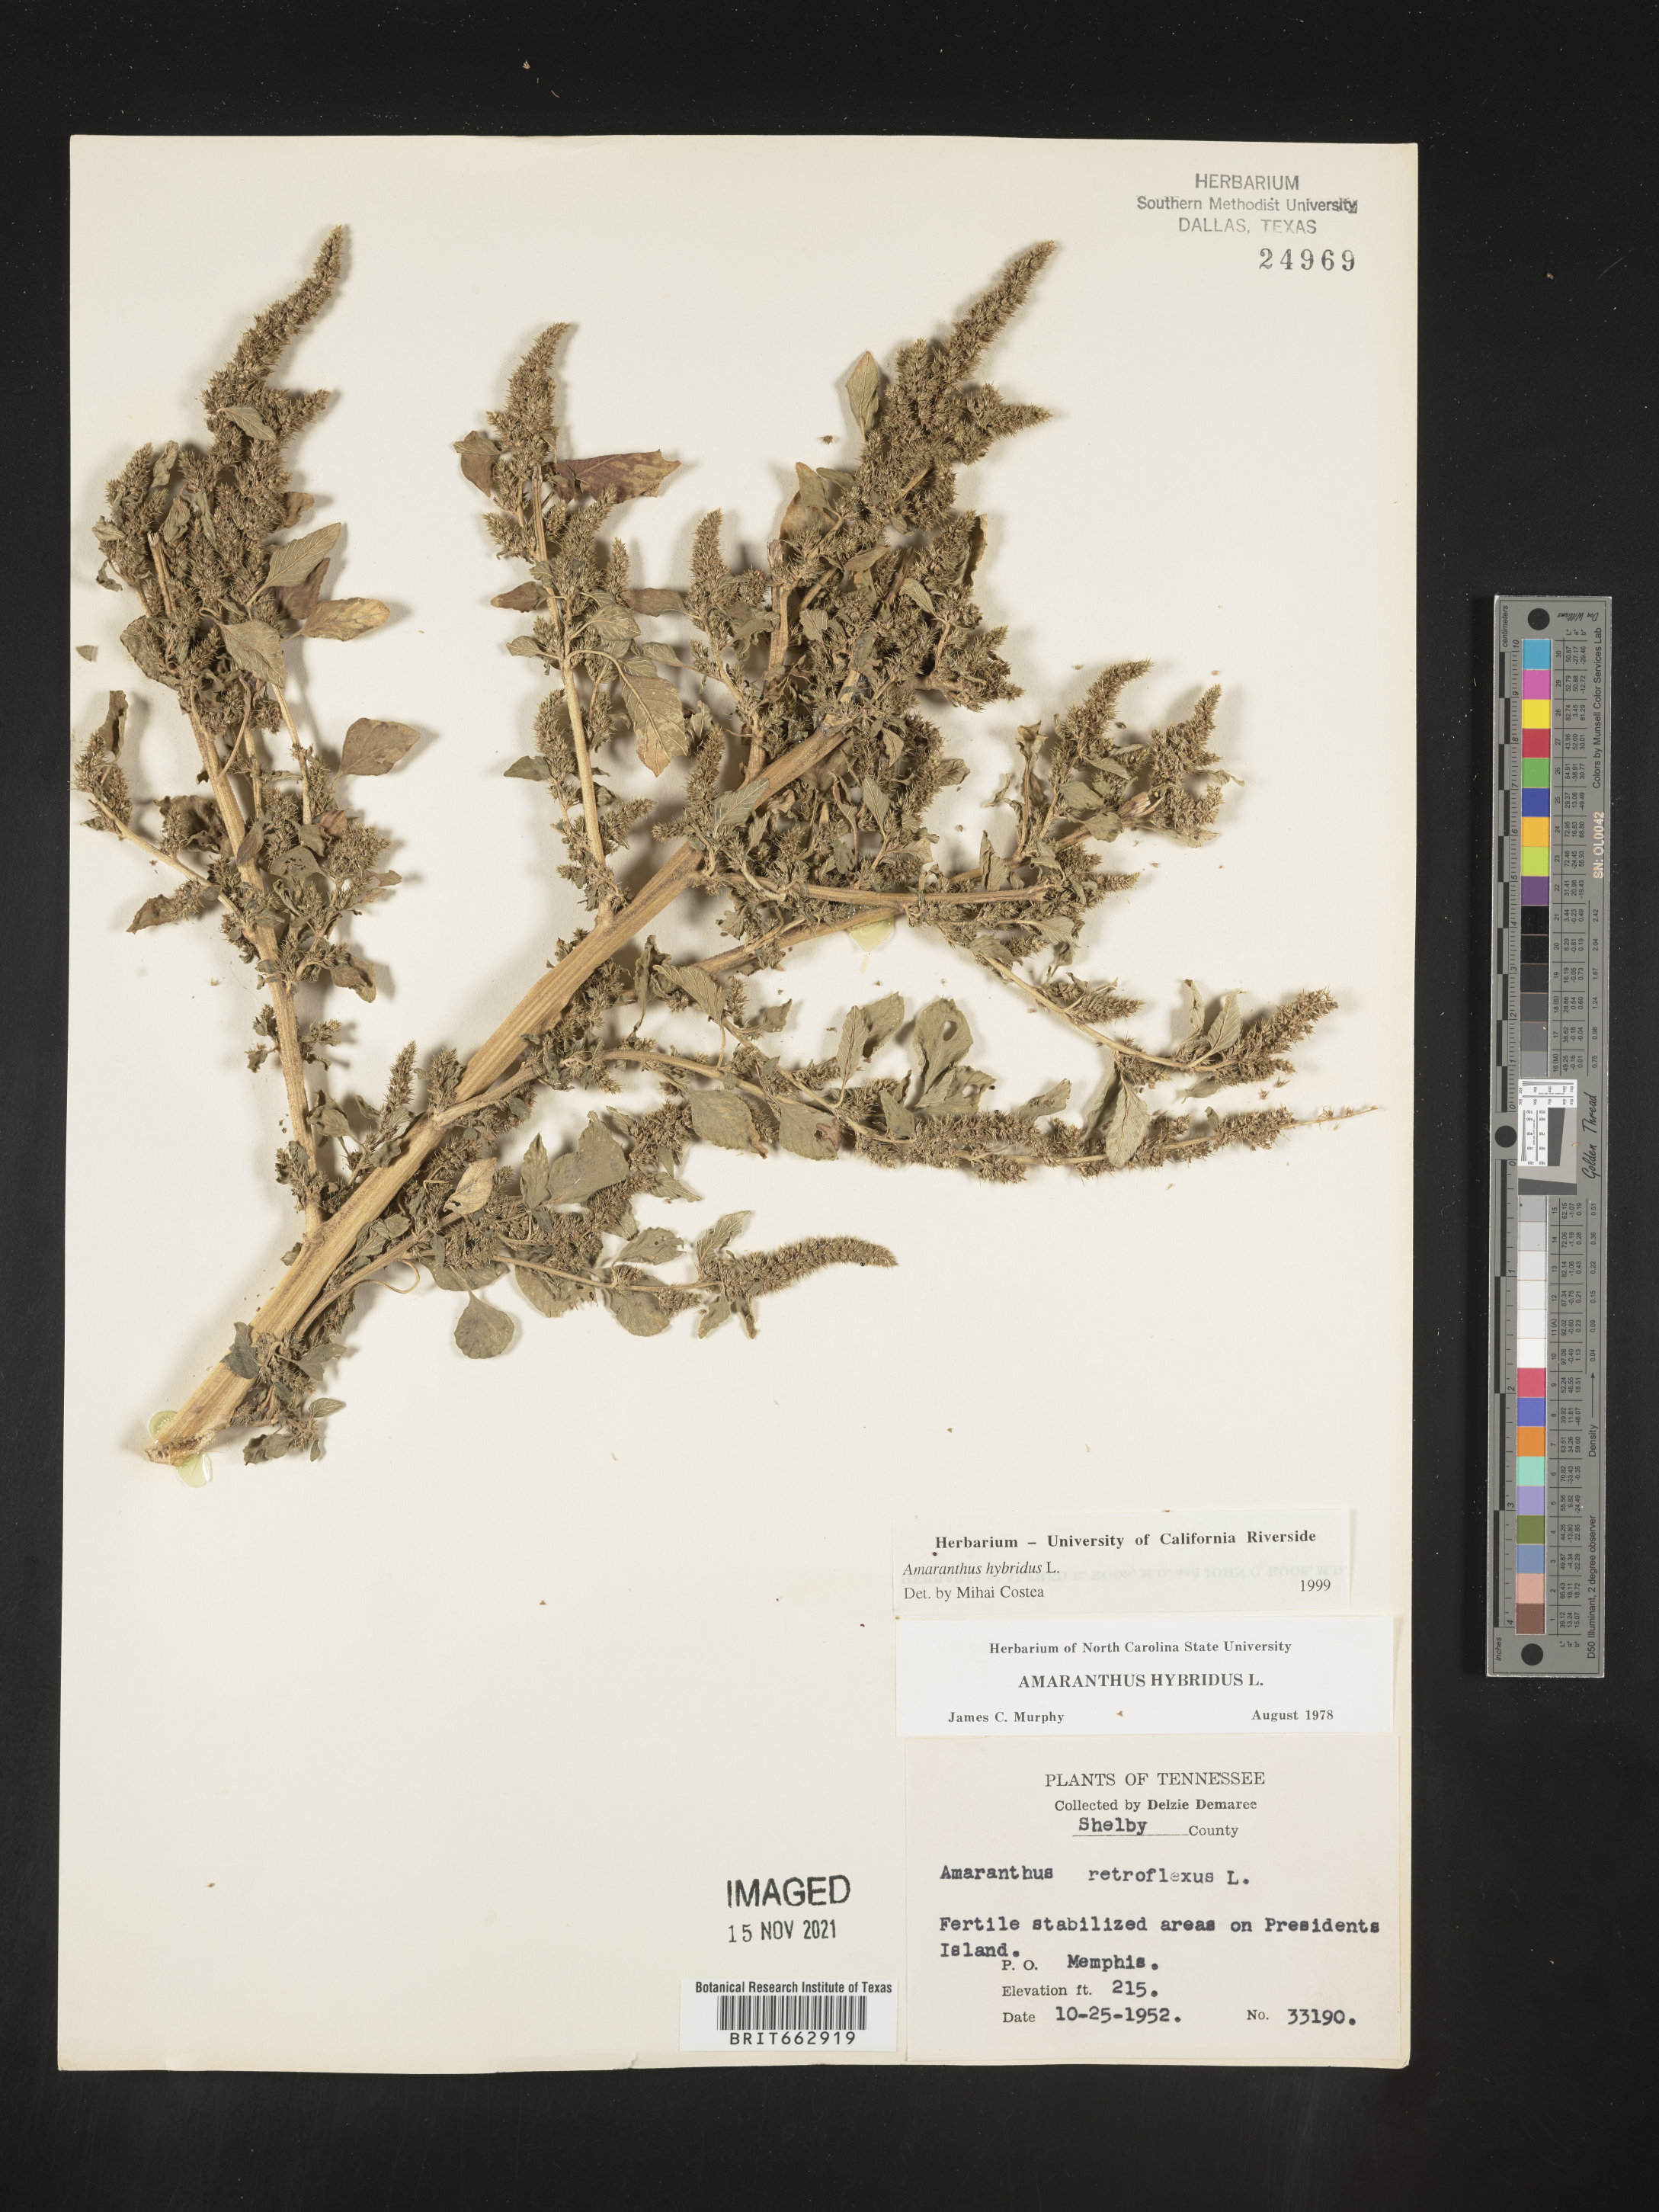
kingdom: Plantae
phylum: Tracheophyta
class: Magnoliopsida
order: Caryophyllales
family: Amaranthaceae
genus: Amaranthus
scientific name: Amaranthus hybridus
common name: Green amaranth
